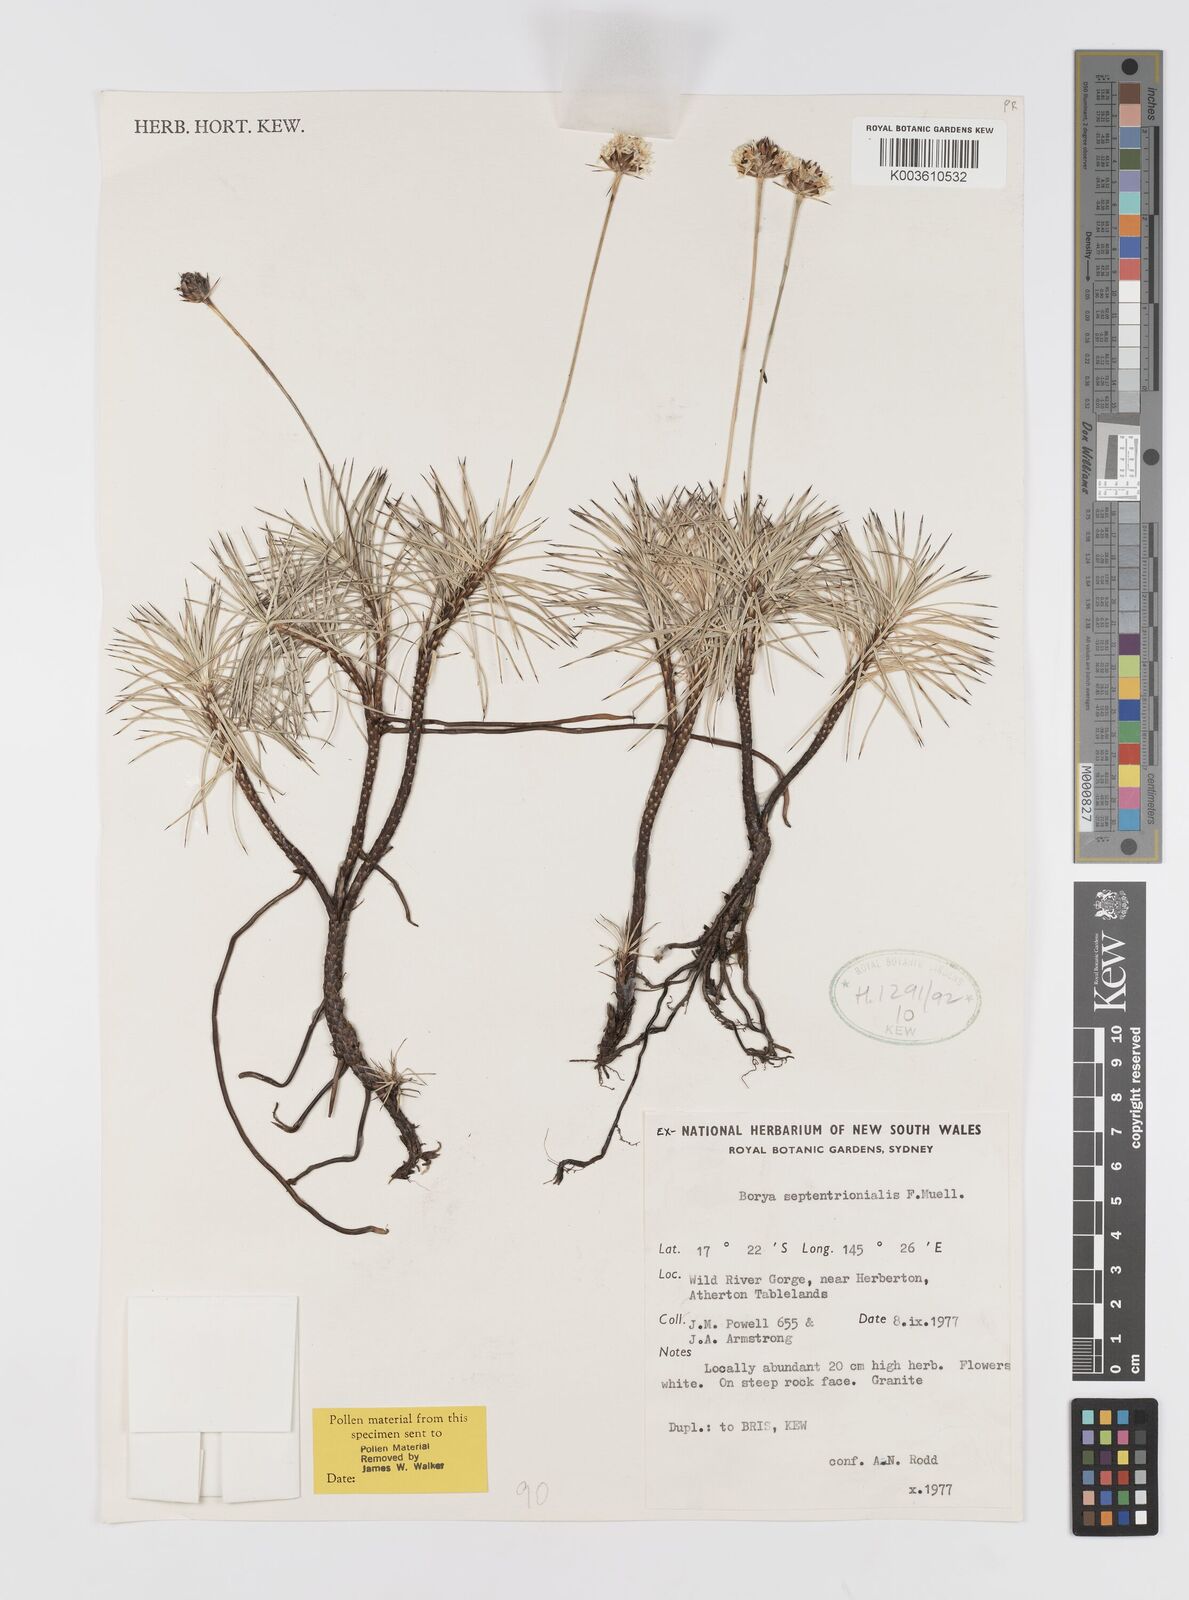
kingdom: Plantae
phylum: Tracheophyta
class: Liliopsida
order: Asparagales
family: Boryaceae
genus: Borya
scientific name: Borya septentrionalis
